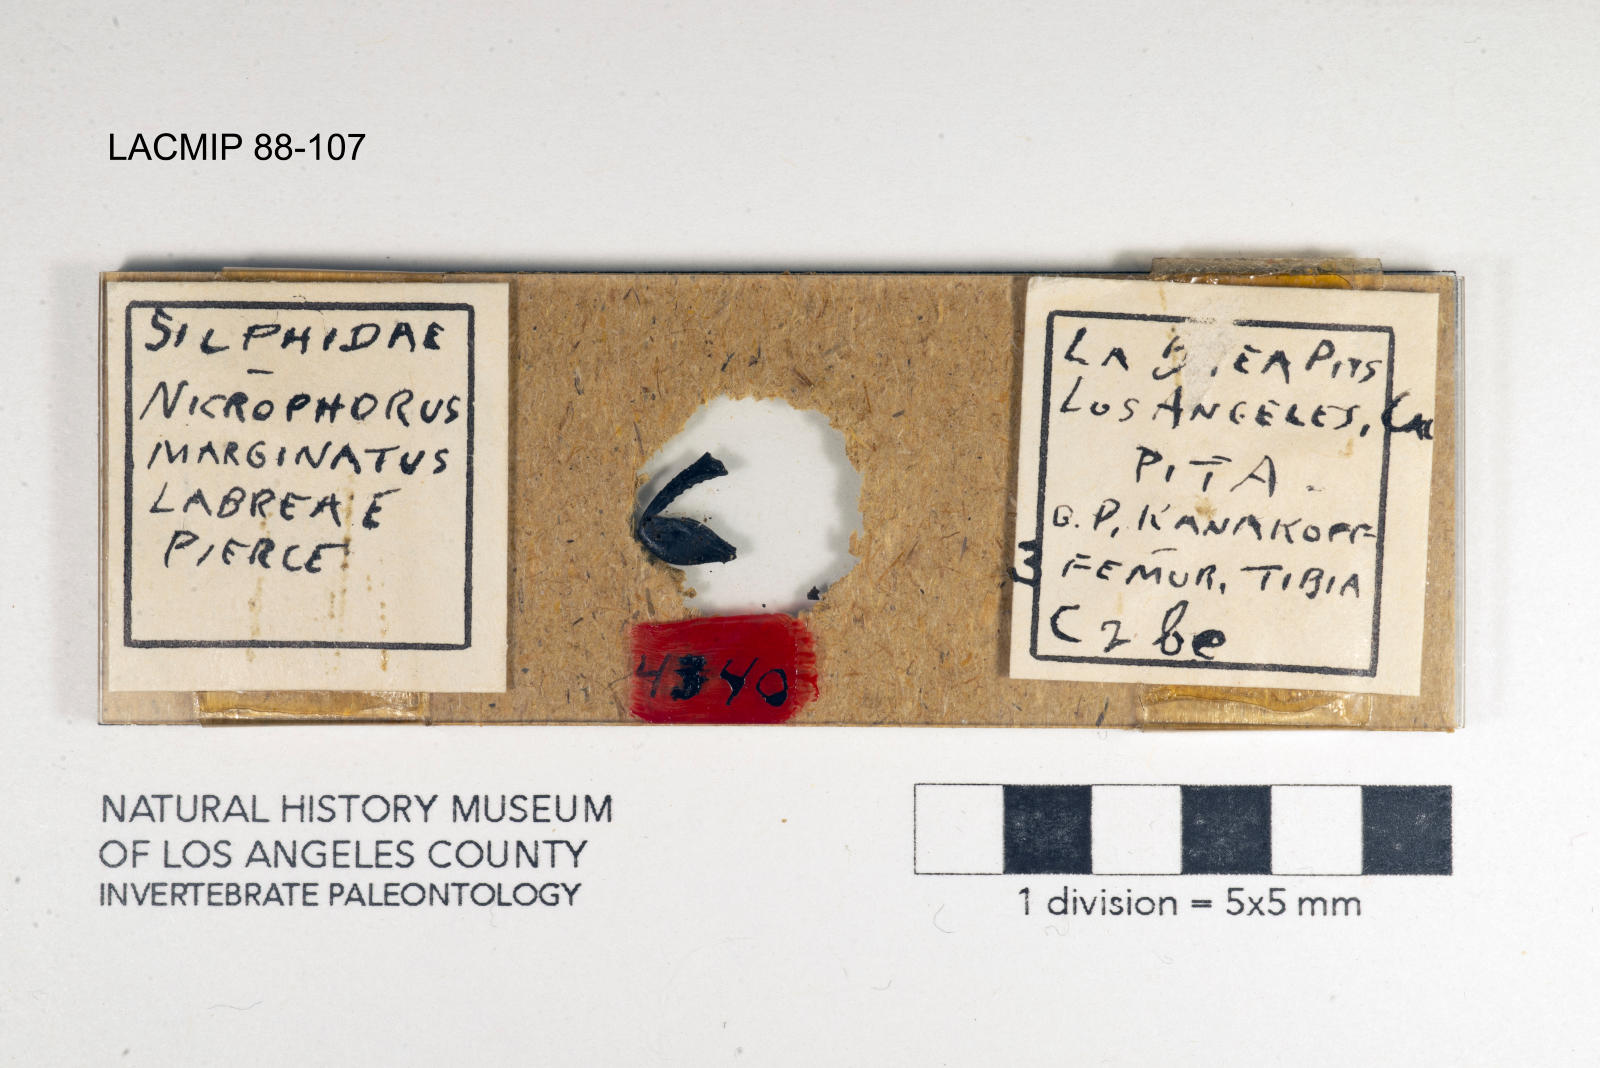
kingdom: Animalia
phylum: Arthropoda
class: Insecta
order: Coleoptera
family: Staphylinidae
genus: Nicrophorus
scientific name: Nicrophorus marginatus
